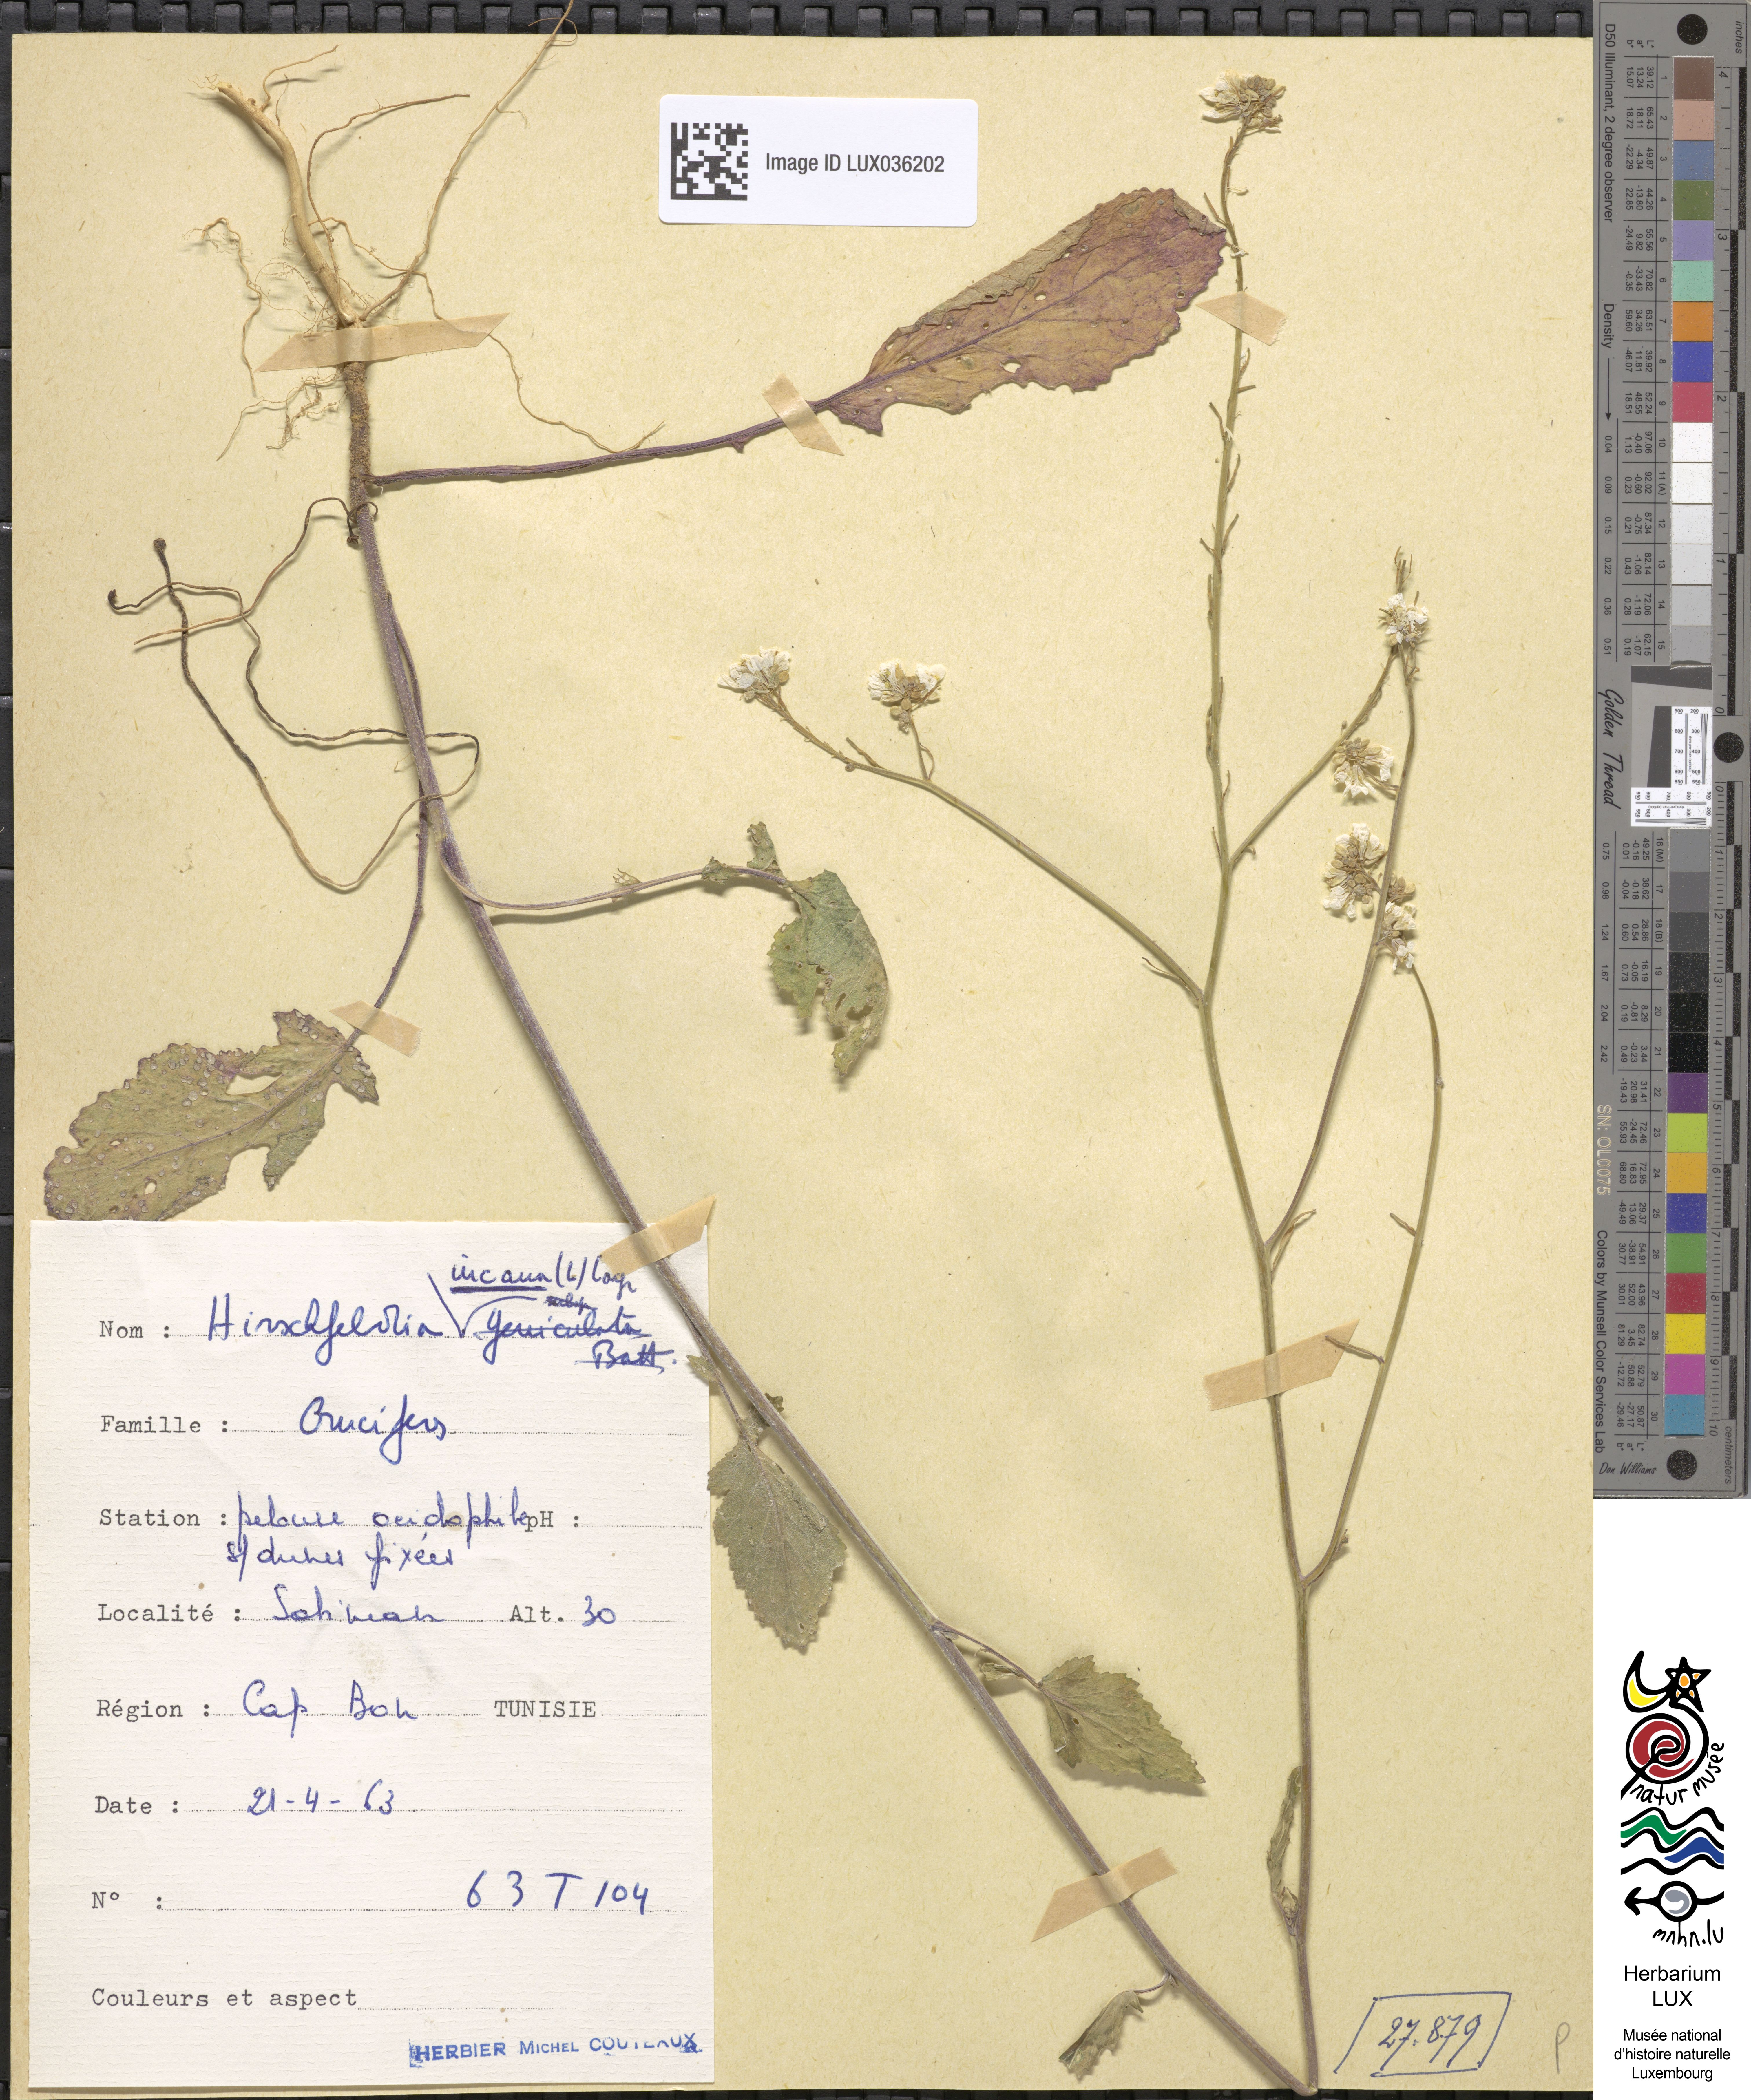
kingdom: Plantae
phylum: Tracheophyta
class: Magnoliopsida
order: Brassicales
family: Brassicaceae
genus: Hirschfeldia
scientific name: Hirschfeldia incana
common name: Hoary mustard
